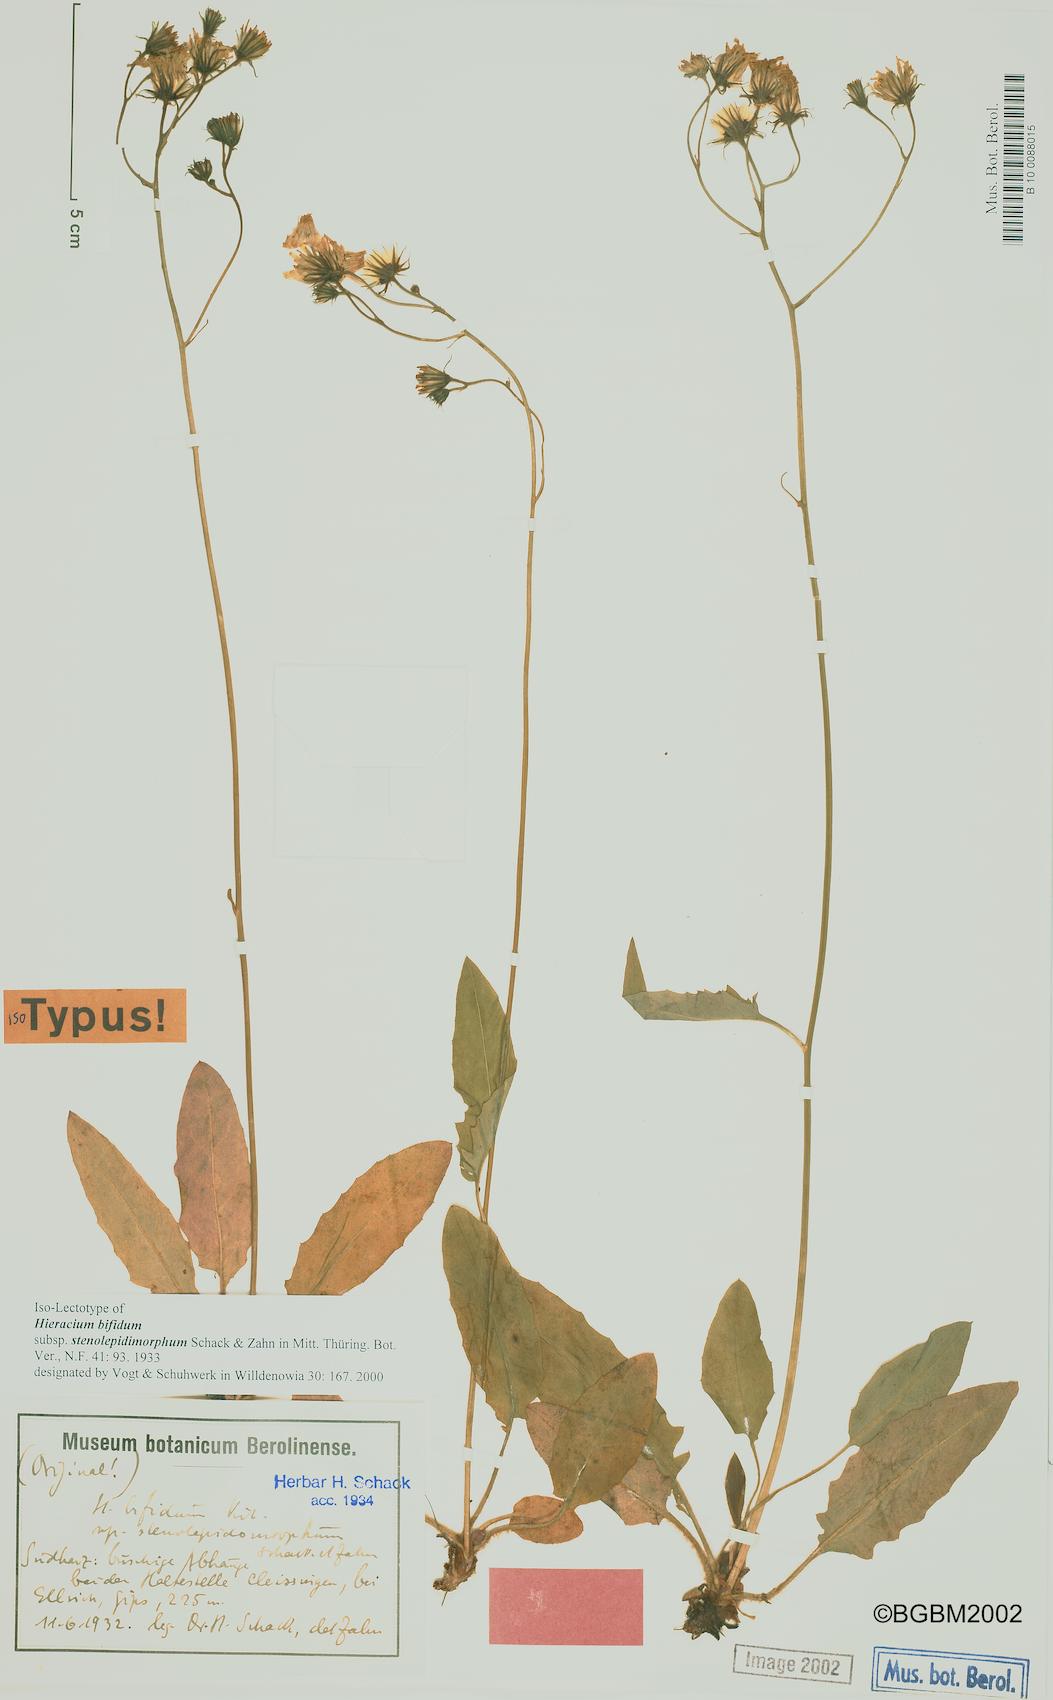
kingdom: Plantae
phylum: Tracheophyta
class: Magnoliopsida
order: Asterales
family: Asteraceae
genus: Hieracium
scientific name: Hieracium bifidum
